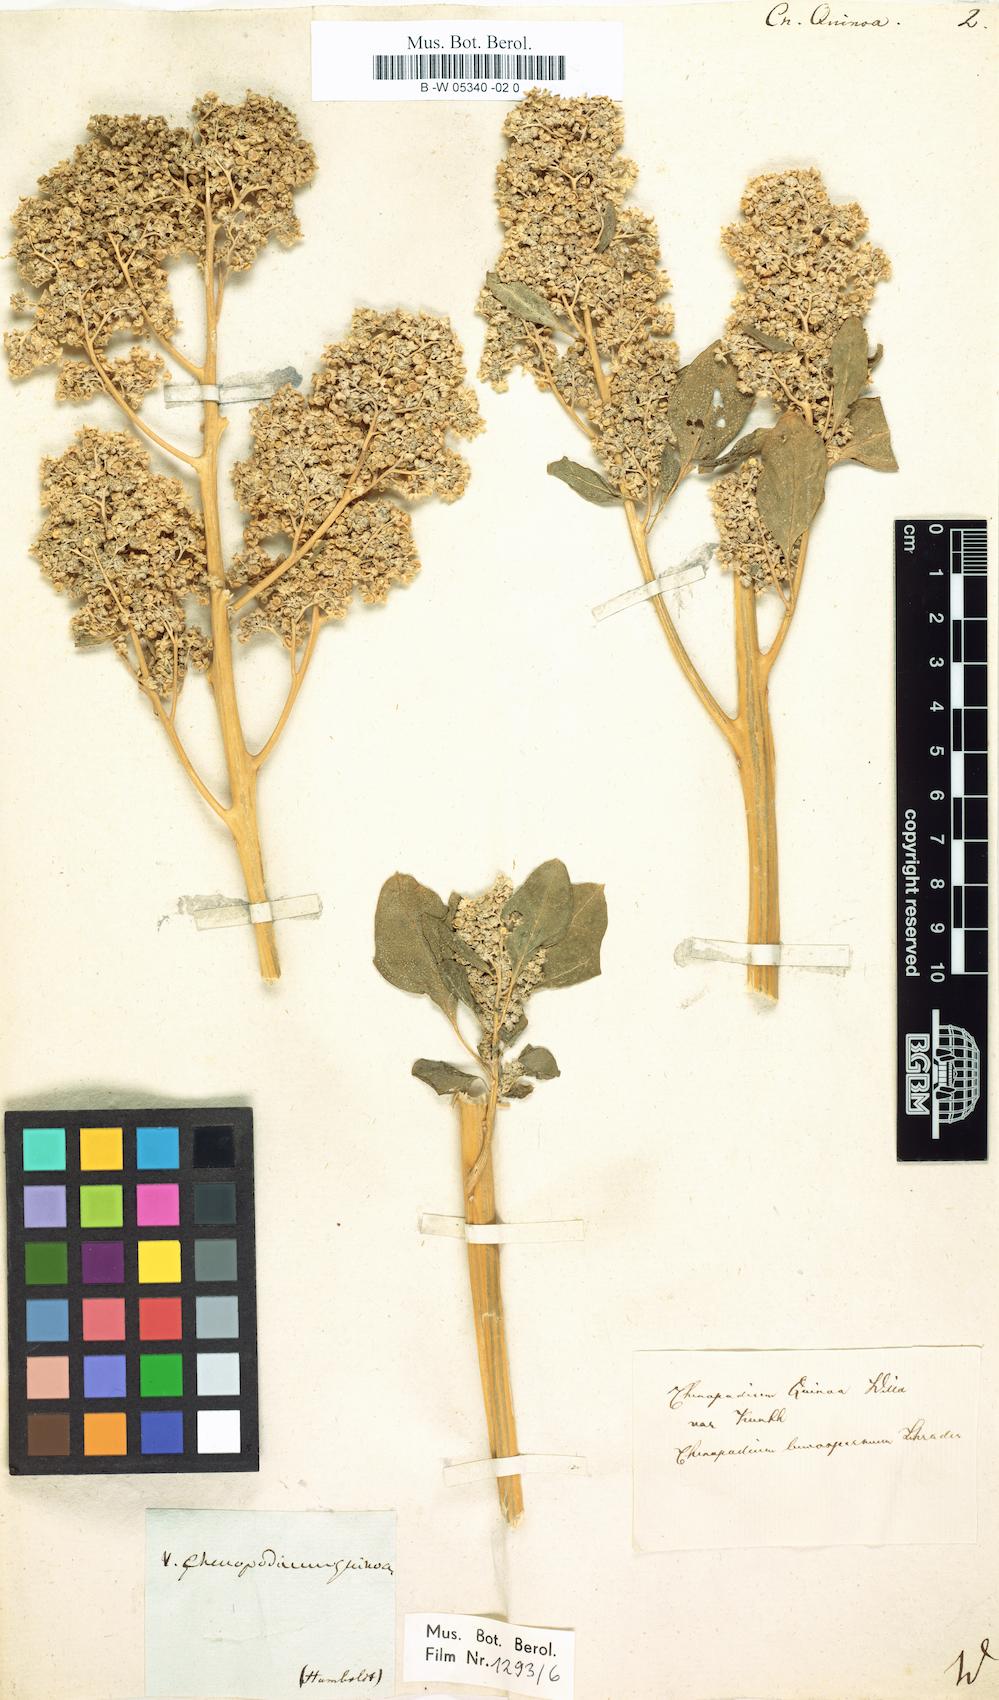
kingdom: Plantae
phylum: Tracheophyta
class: Magnoliopsida
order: Caryophyllales
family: Amaranthaceae
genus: Chenopodium
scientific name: Chenopodium quinoa
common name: Quinoa
